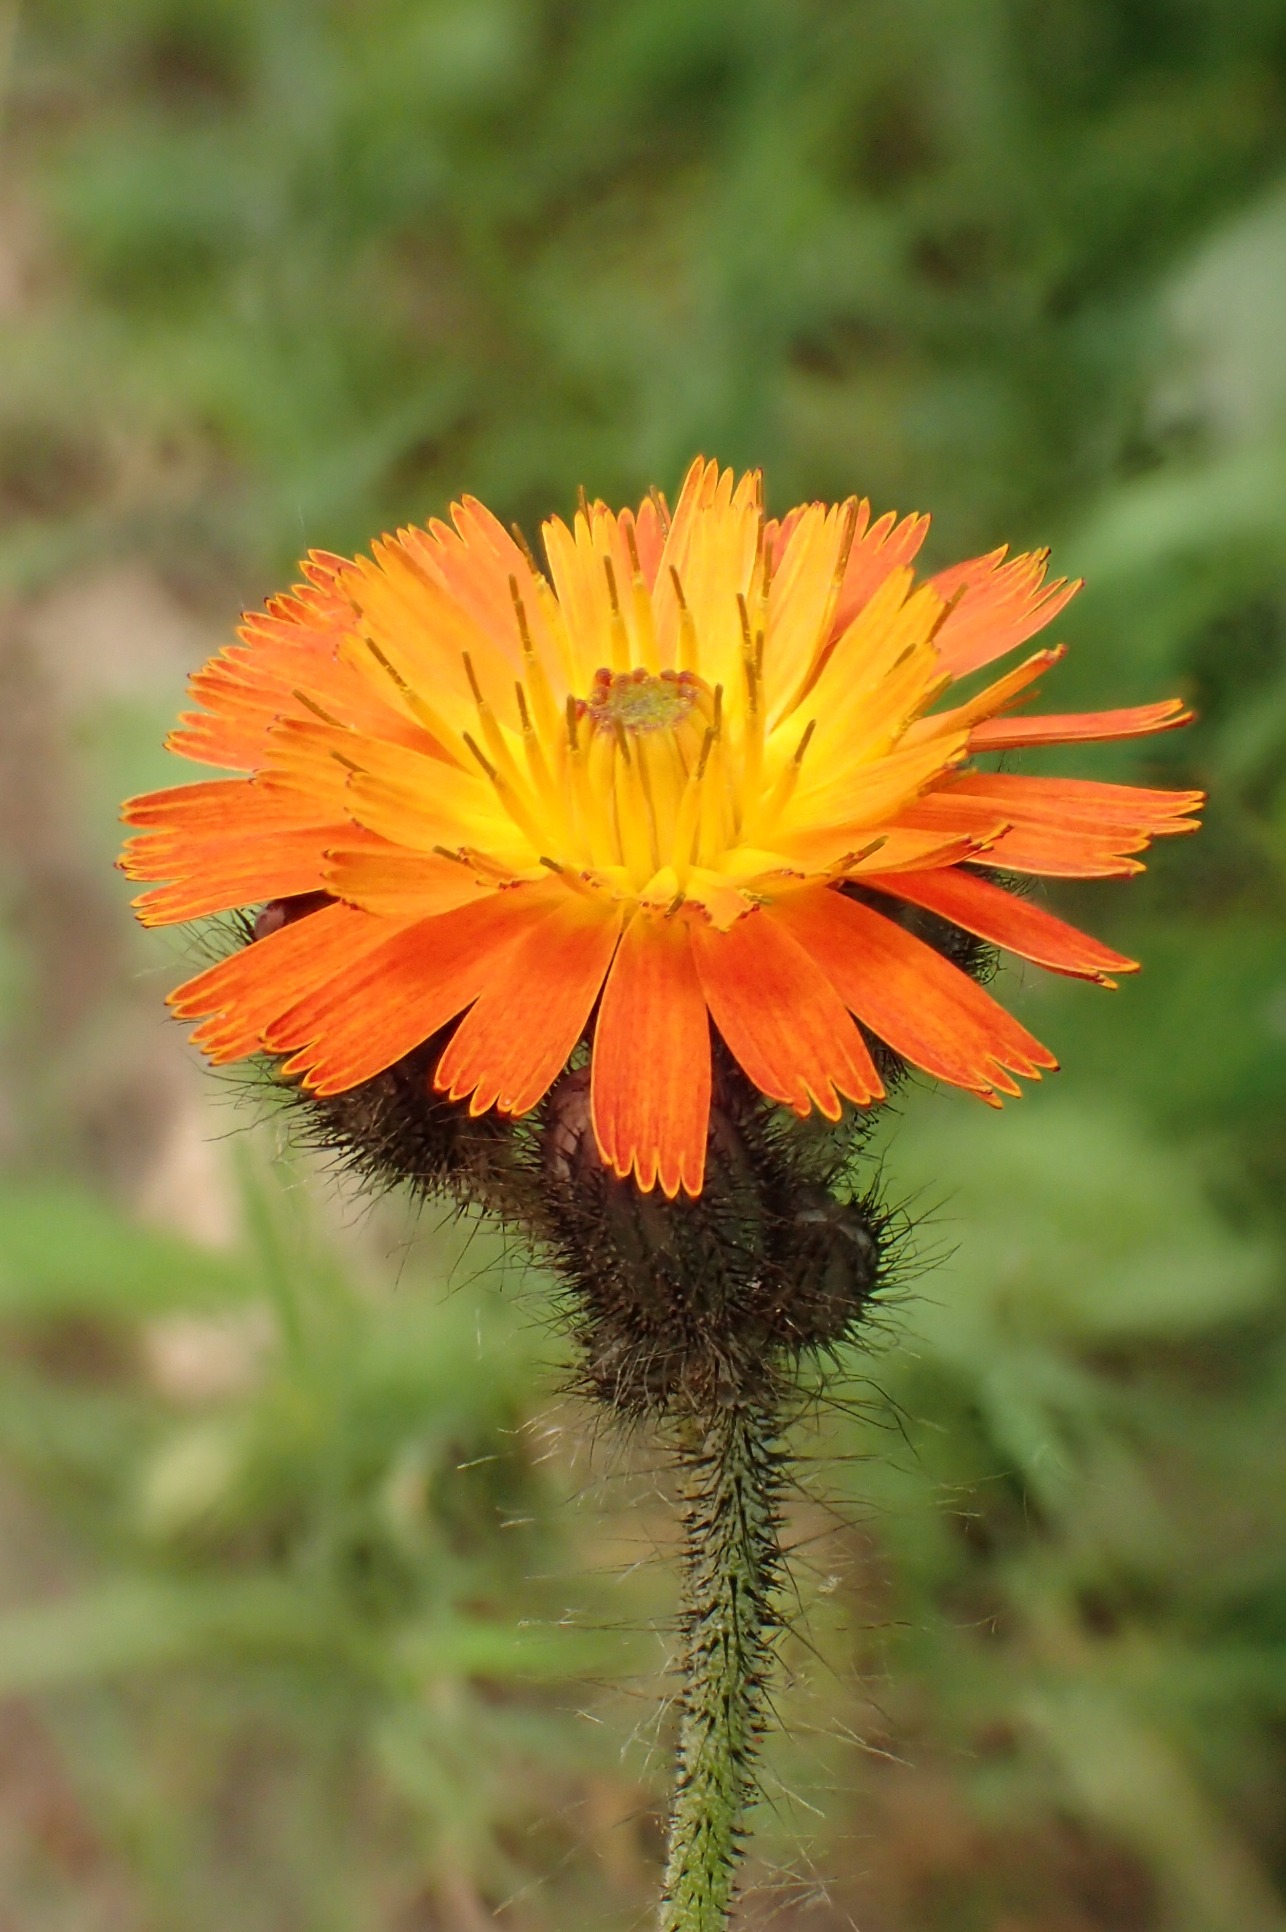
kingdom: Plantae
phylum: Tracheophyta
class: Magnoliopsida
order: Asterales
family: Asteraceae
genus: Pilosella
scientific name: Pilosella aurantiaca
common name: Pomerans-høgeurt
